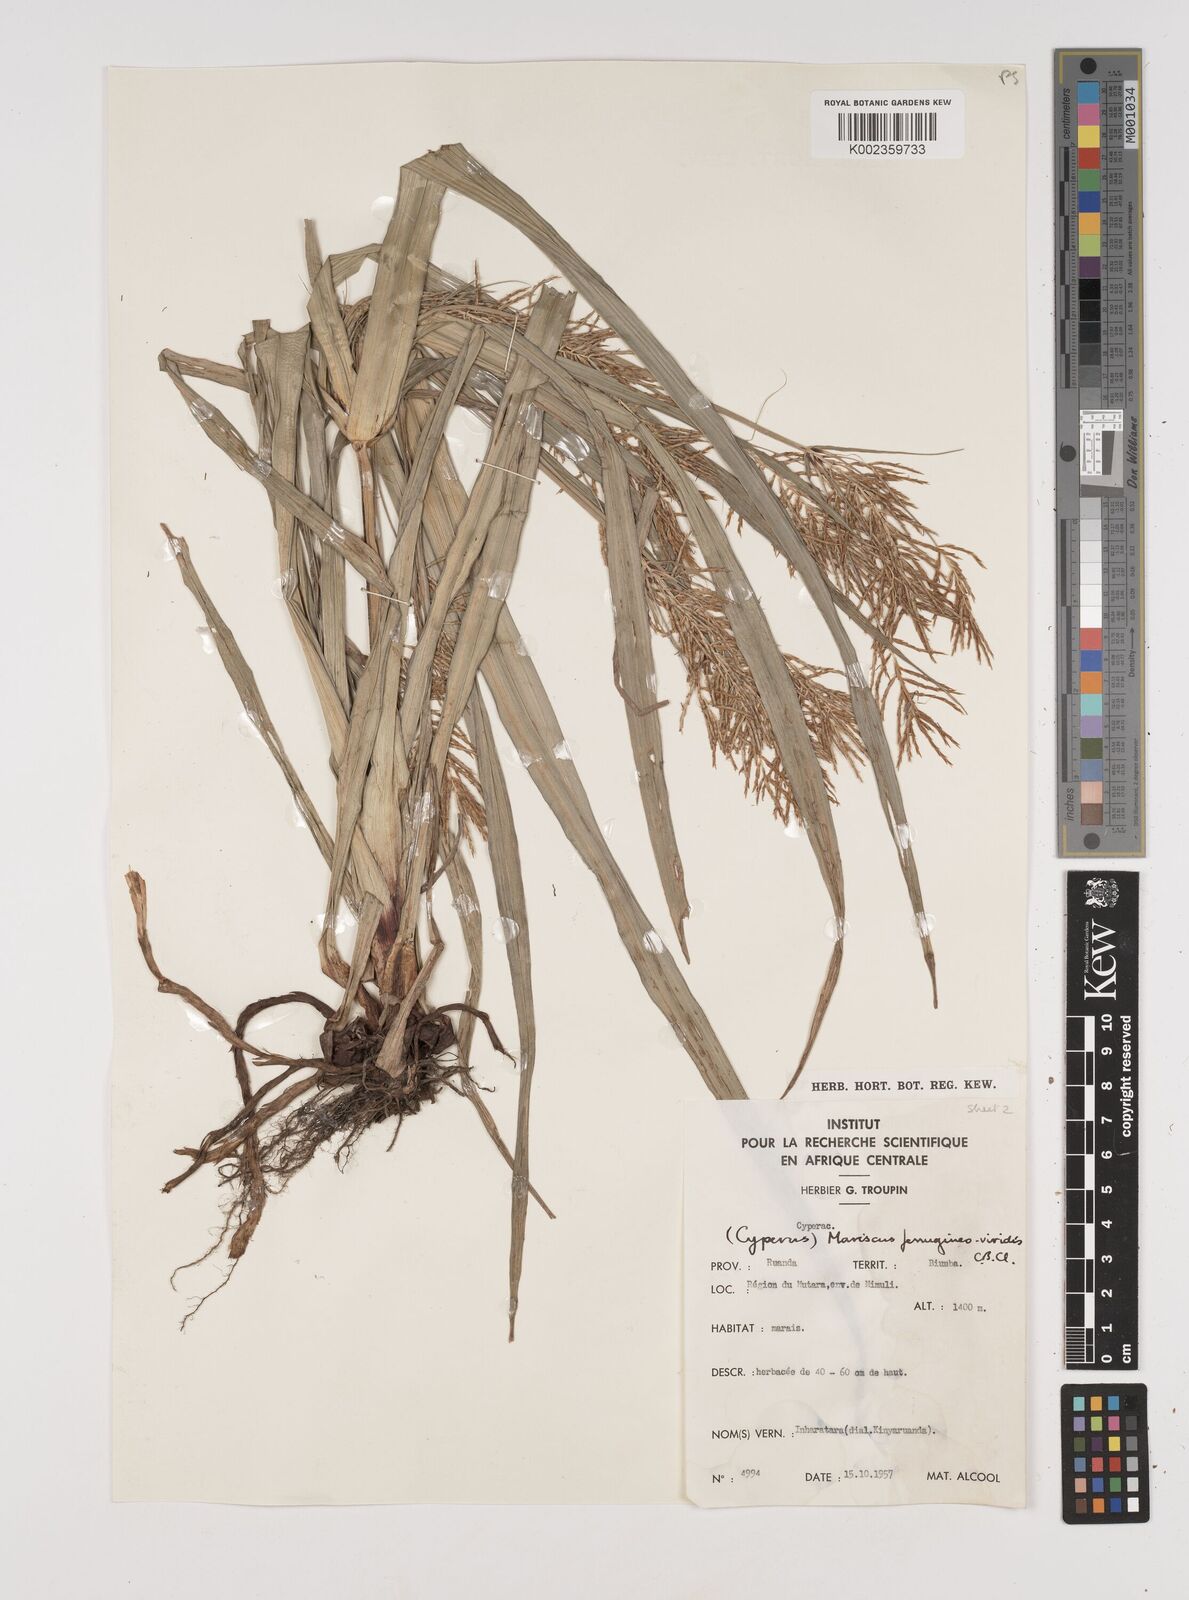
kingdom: Plantae
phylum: Tracheophyta
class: Liliopsida
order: Poales
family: Cyperaceae
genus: Cyperus
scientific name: Cyperus ferrugineoviridis
